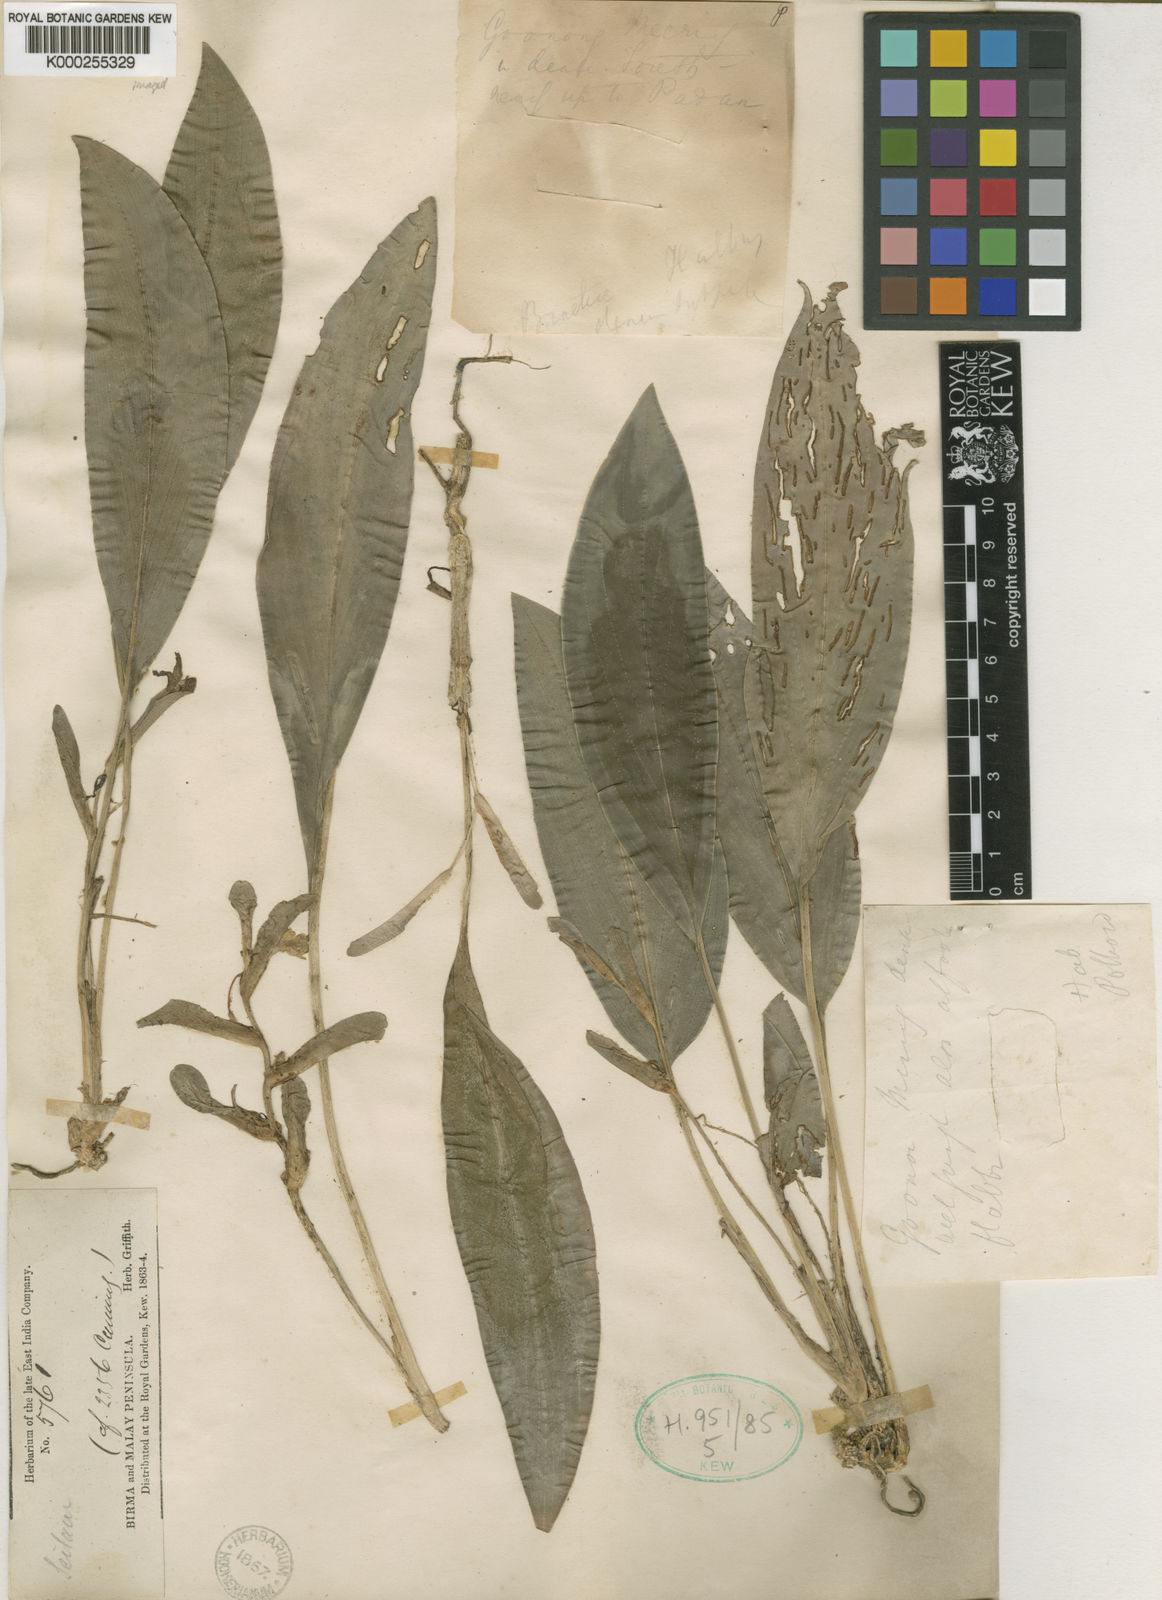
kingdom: Plantae
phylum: Tracheophyta
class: Liliopsida
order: Zingiberales
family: Zingiberaceae
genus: Scaphochlamys
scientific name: Scaphochlamys malaccana
